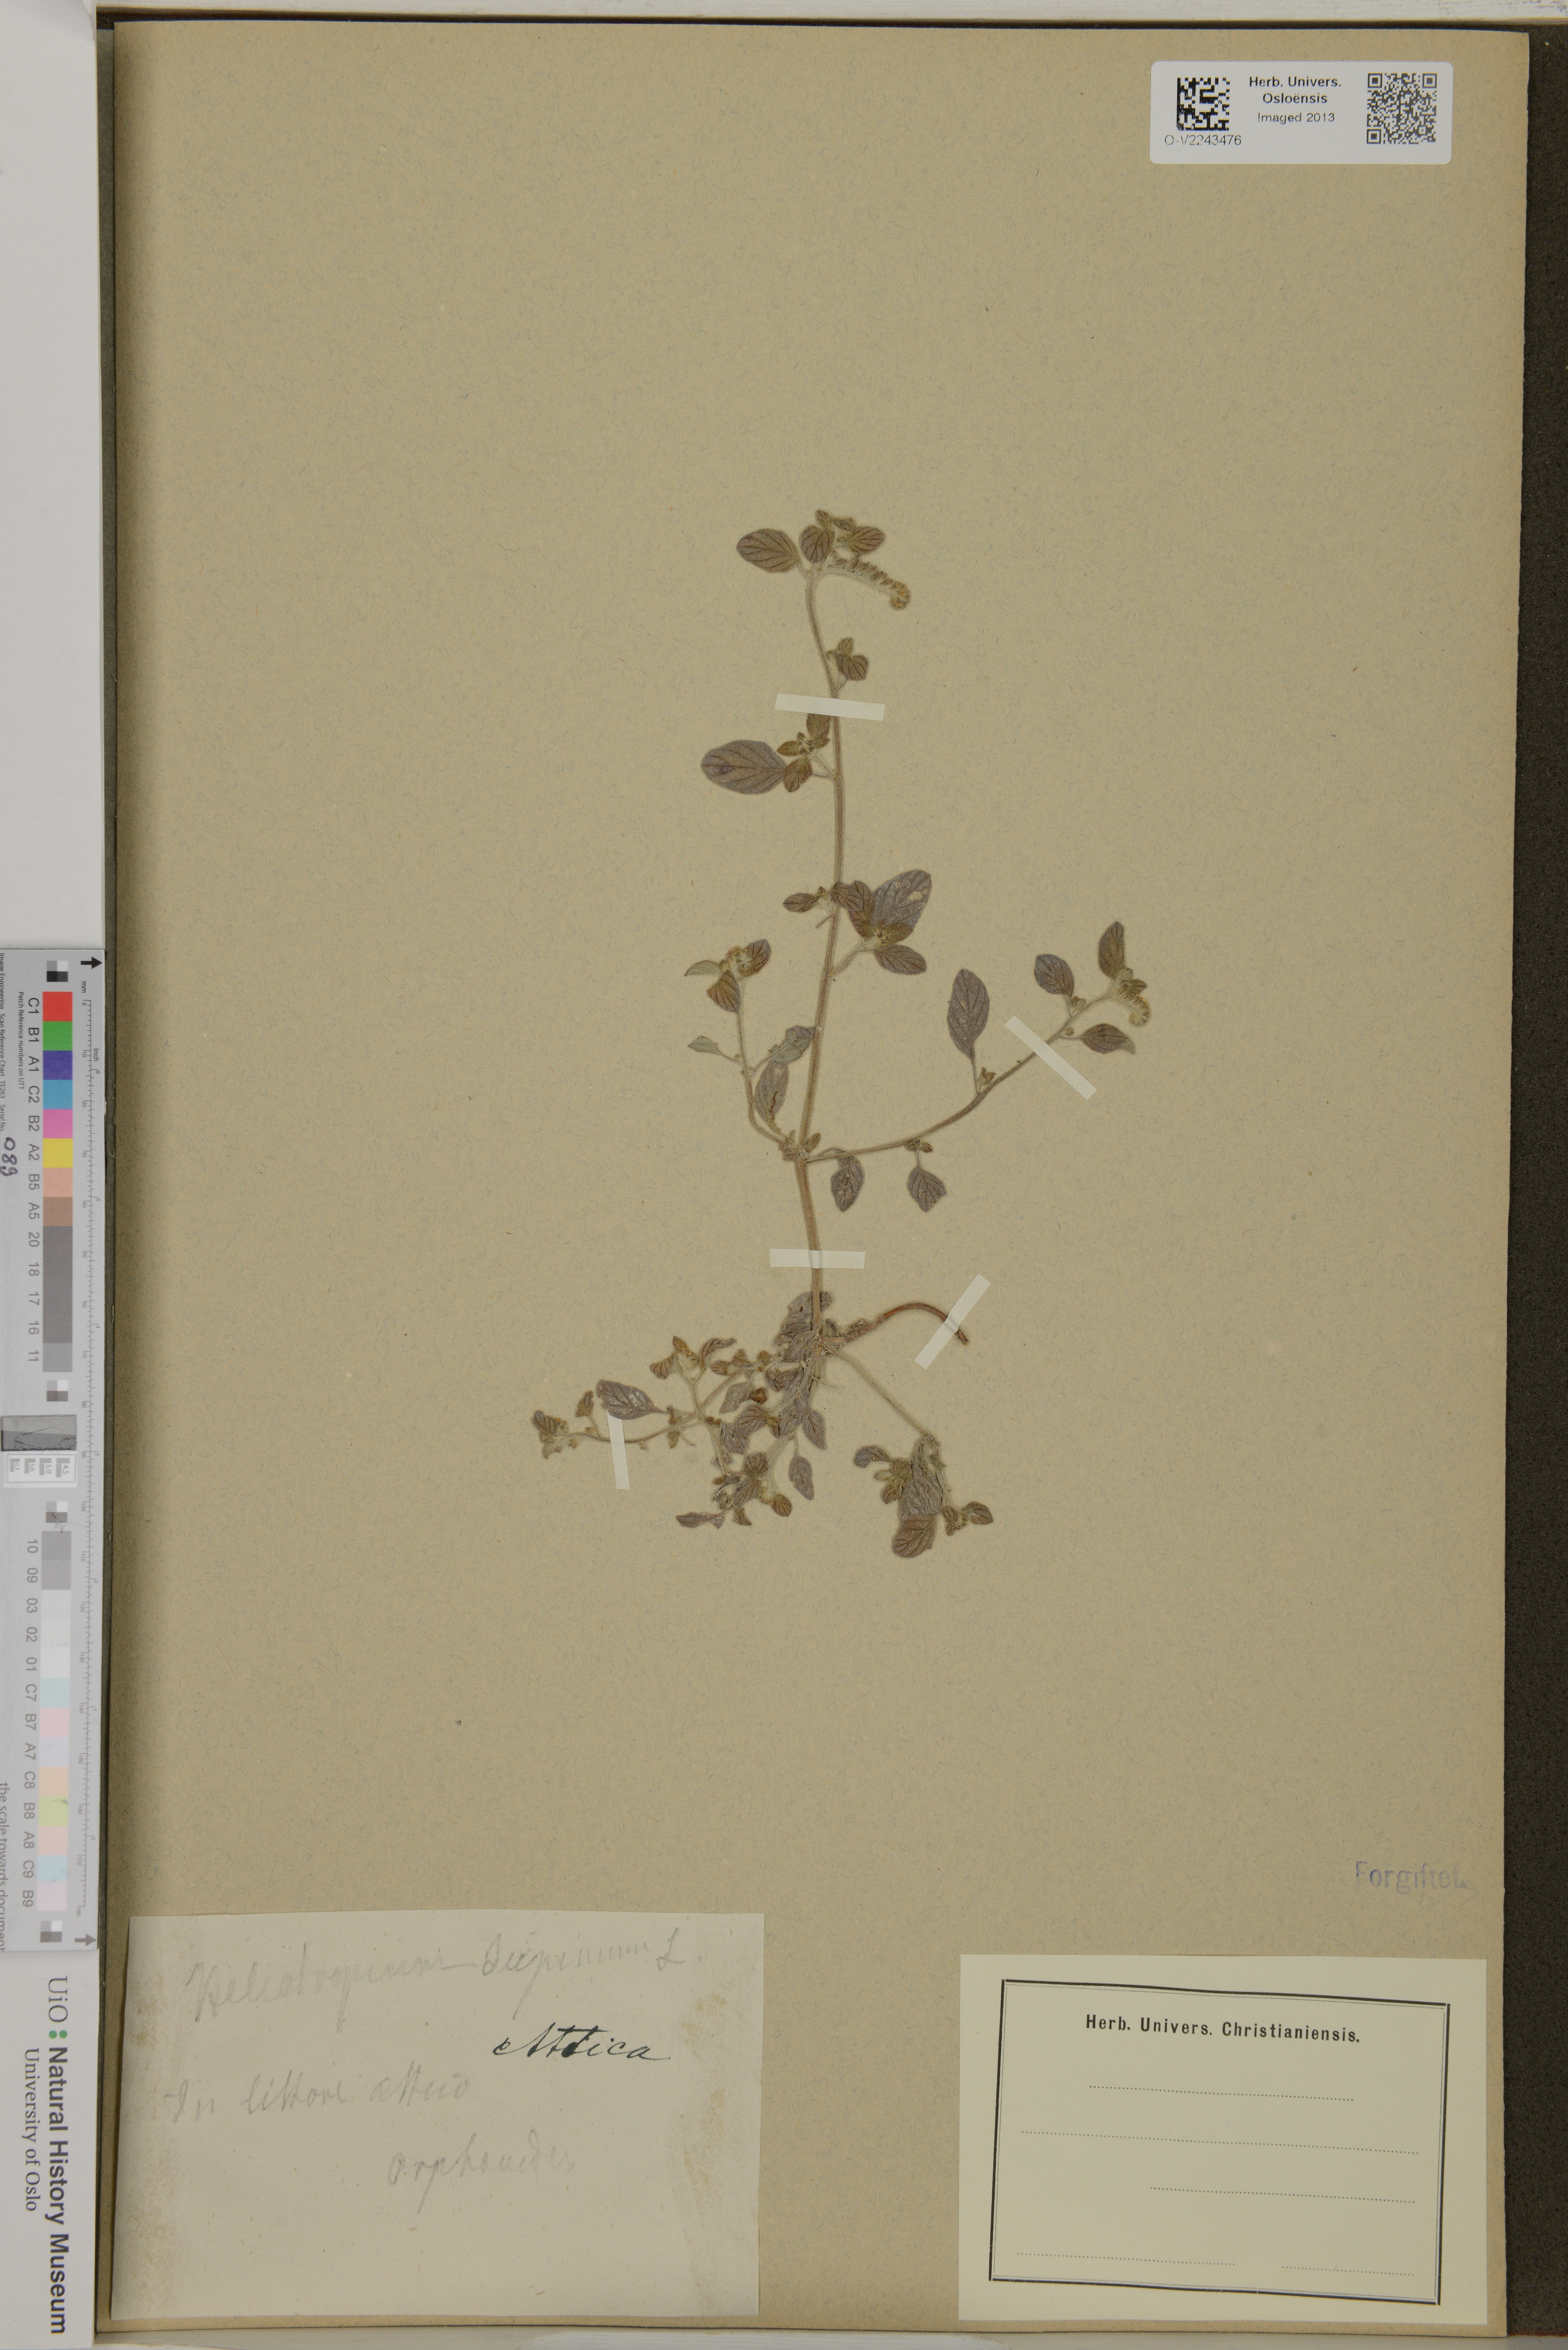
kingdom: Plantae
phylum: Tracheophyta
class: Magnoliopsida
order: Boraginales
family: Heliotropiaceae
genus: Heliotropium
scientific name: Heliotropium supinum
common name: Dwarf heliotrope
